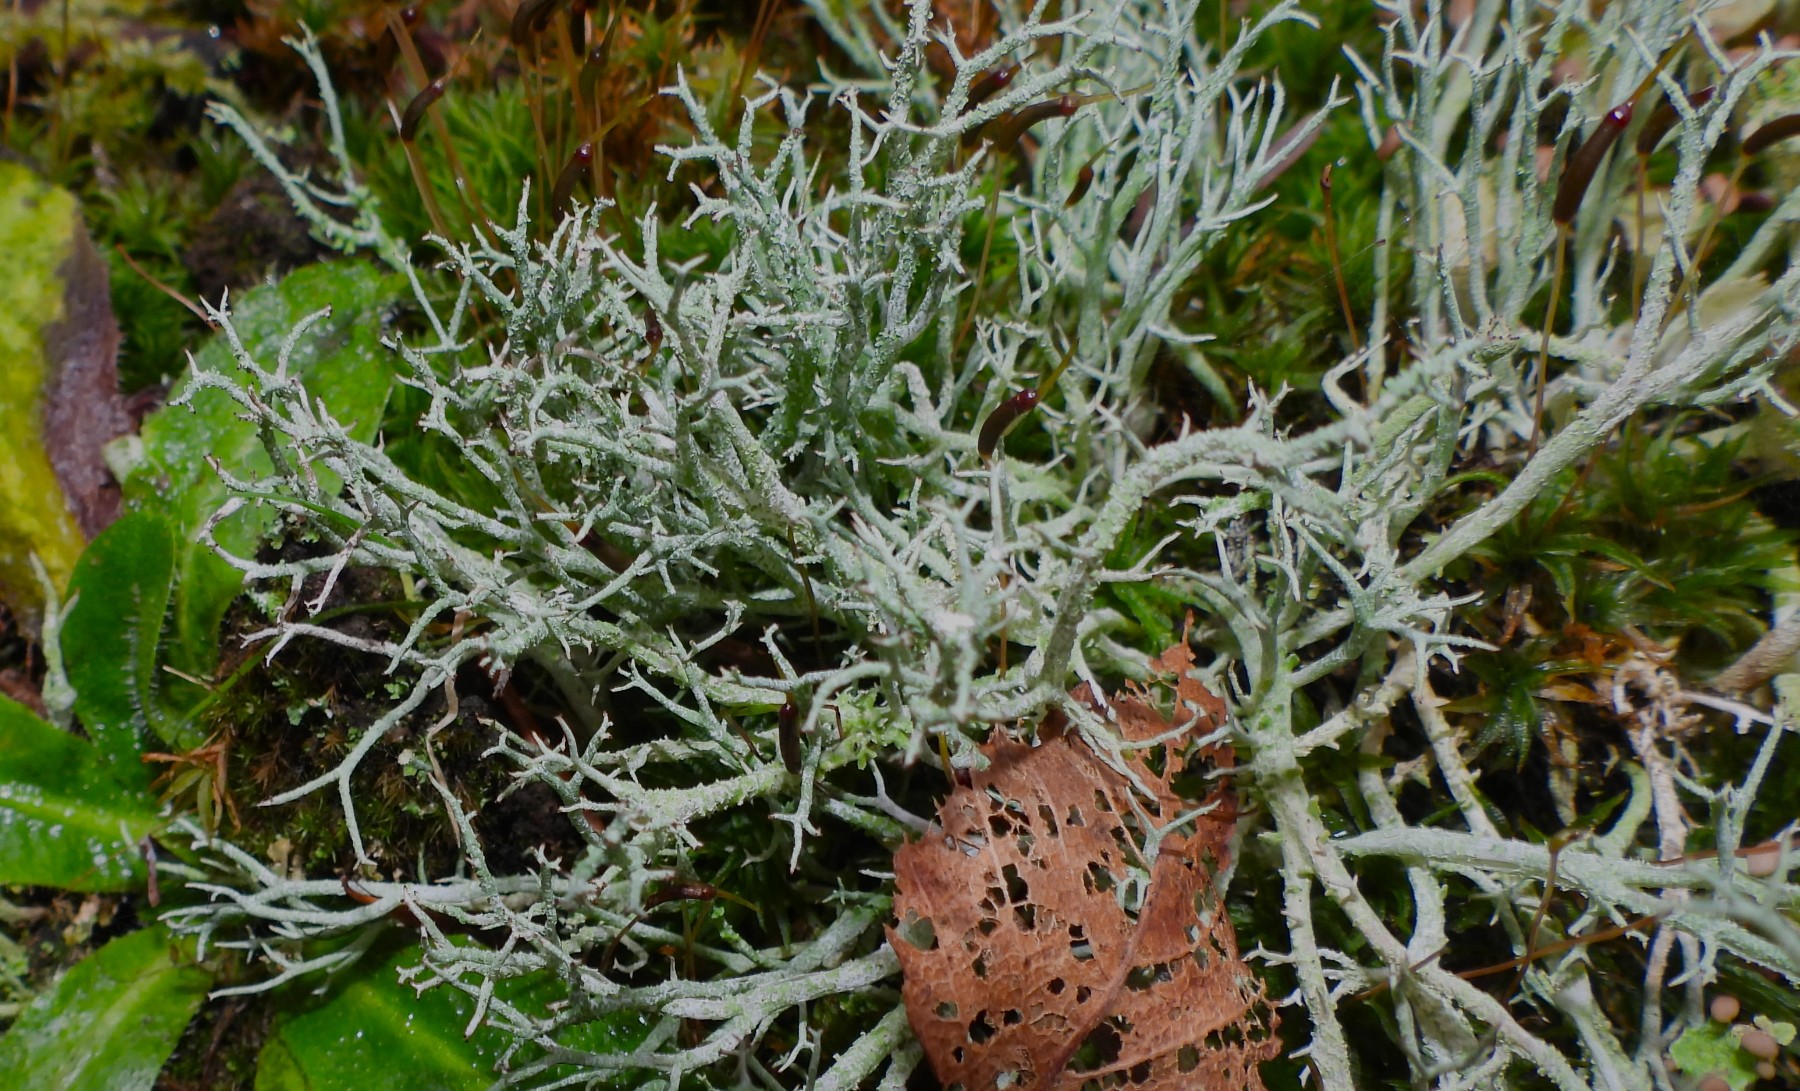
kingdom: Fungi
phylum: Ascomycota
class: Lecanoromycetes
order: Lecanorales
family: Cladoniaceae
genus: Cladonia
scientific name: Cladonia rangiformis
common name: spættet bægerlav
